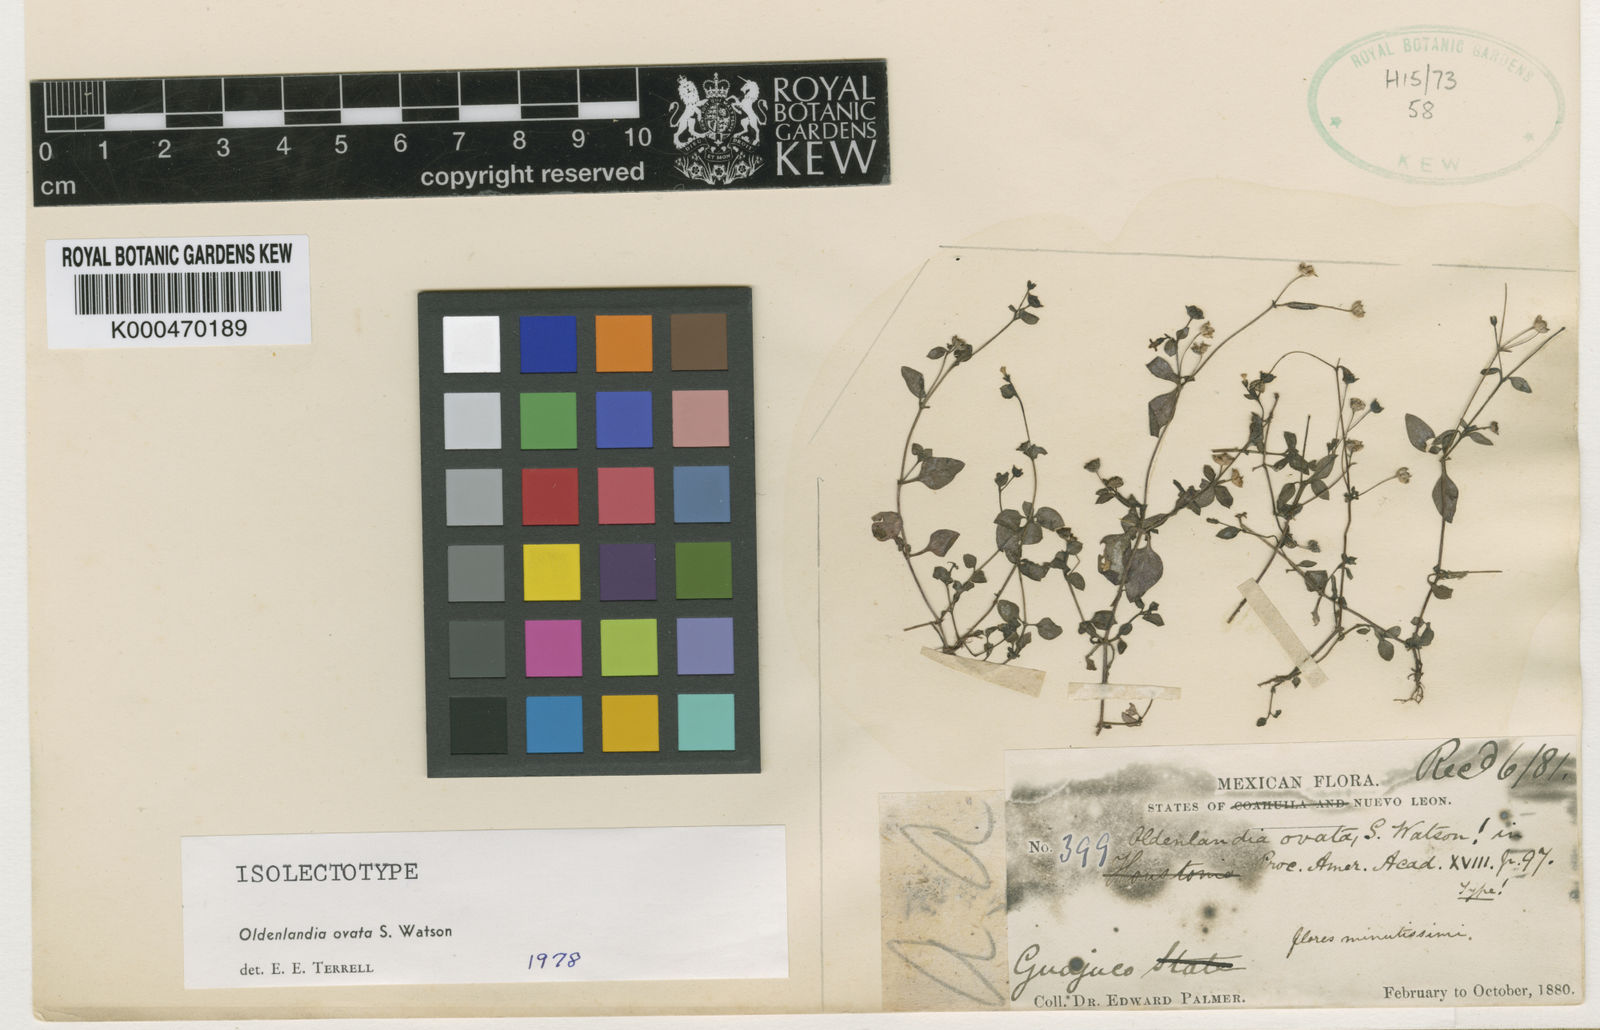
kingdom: Plantae
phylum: Tracheophyta
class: Magnoliopsida
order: Gentianales
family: Rubiaceae
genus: Oldenlandia
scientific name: Oldenlandia ovata
